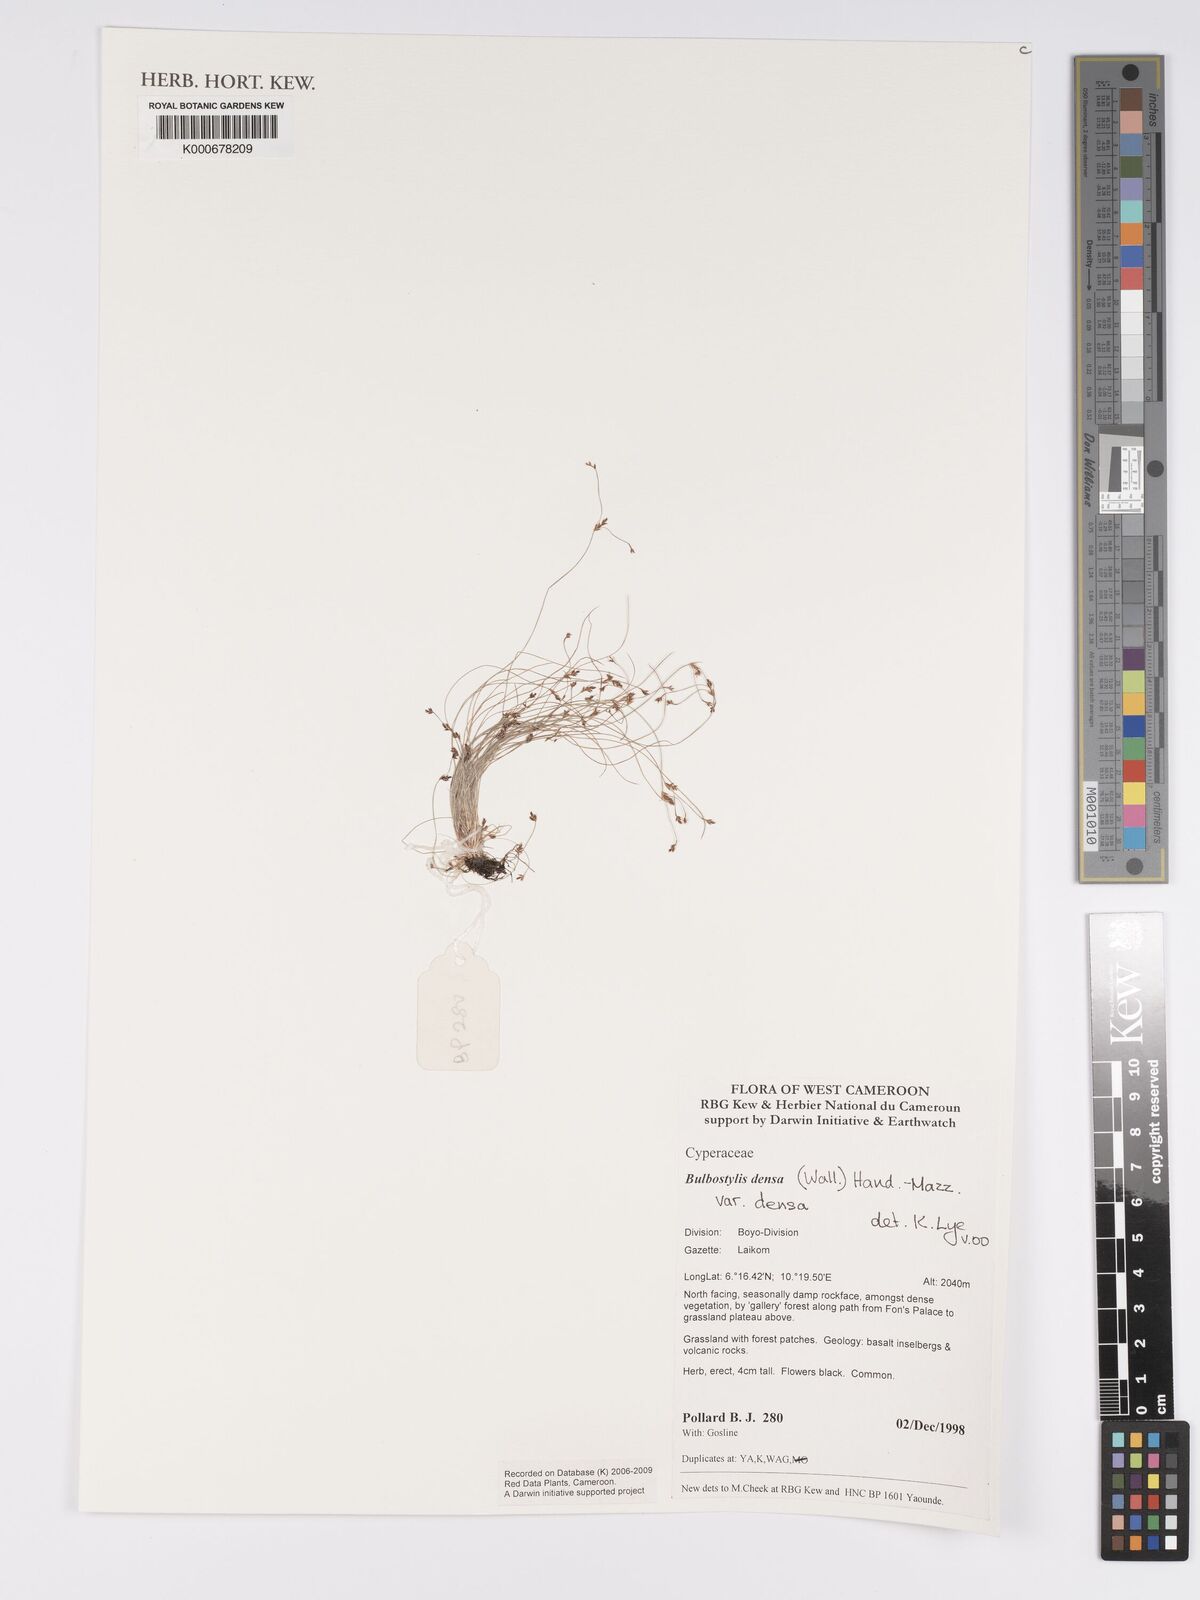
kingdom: Plantae
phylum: Tracheophyta
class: Liliopsida
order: Poales
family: Cyperaceae
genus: Bulbostylis
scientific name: Bulbostylis densa
